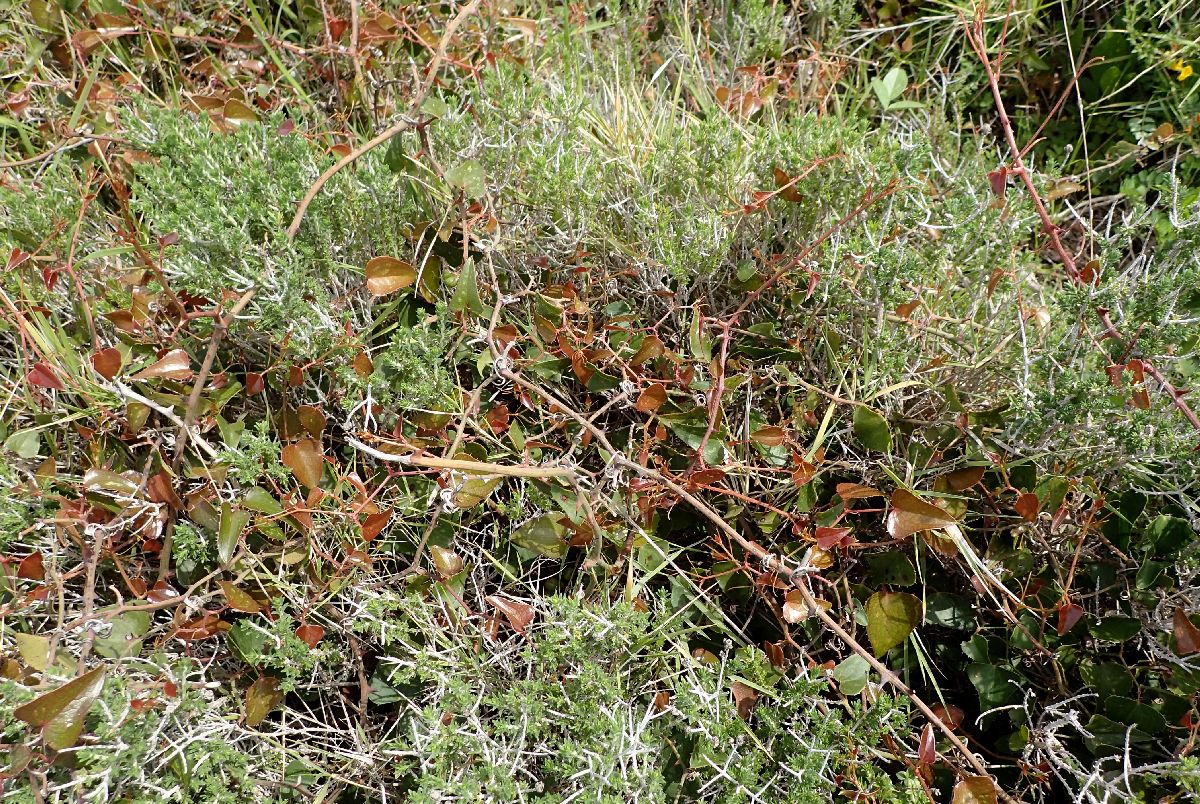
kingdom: Plantae
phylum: Tracheophyta
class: Liliopsida
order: Liliales
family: Smilacaceae
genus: Smilax
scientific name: Smilax aspera
